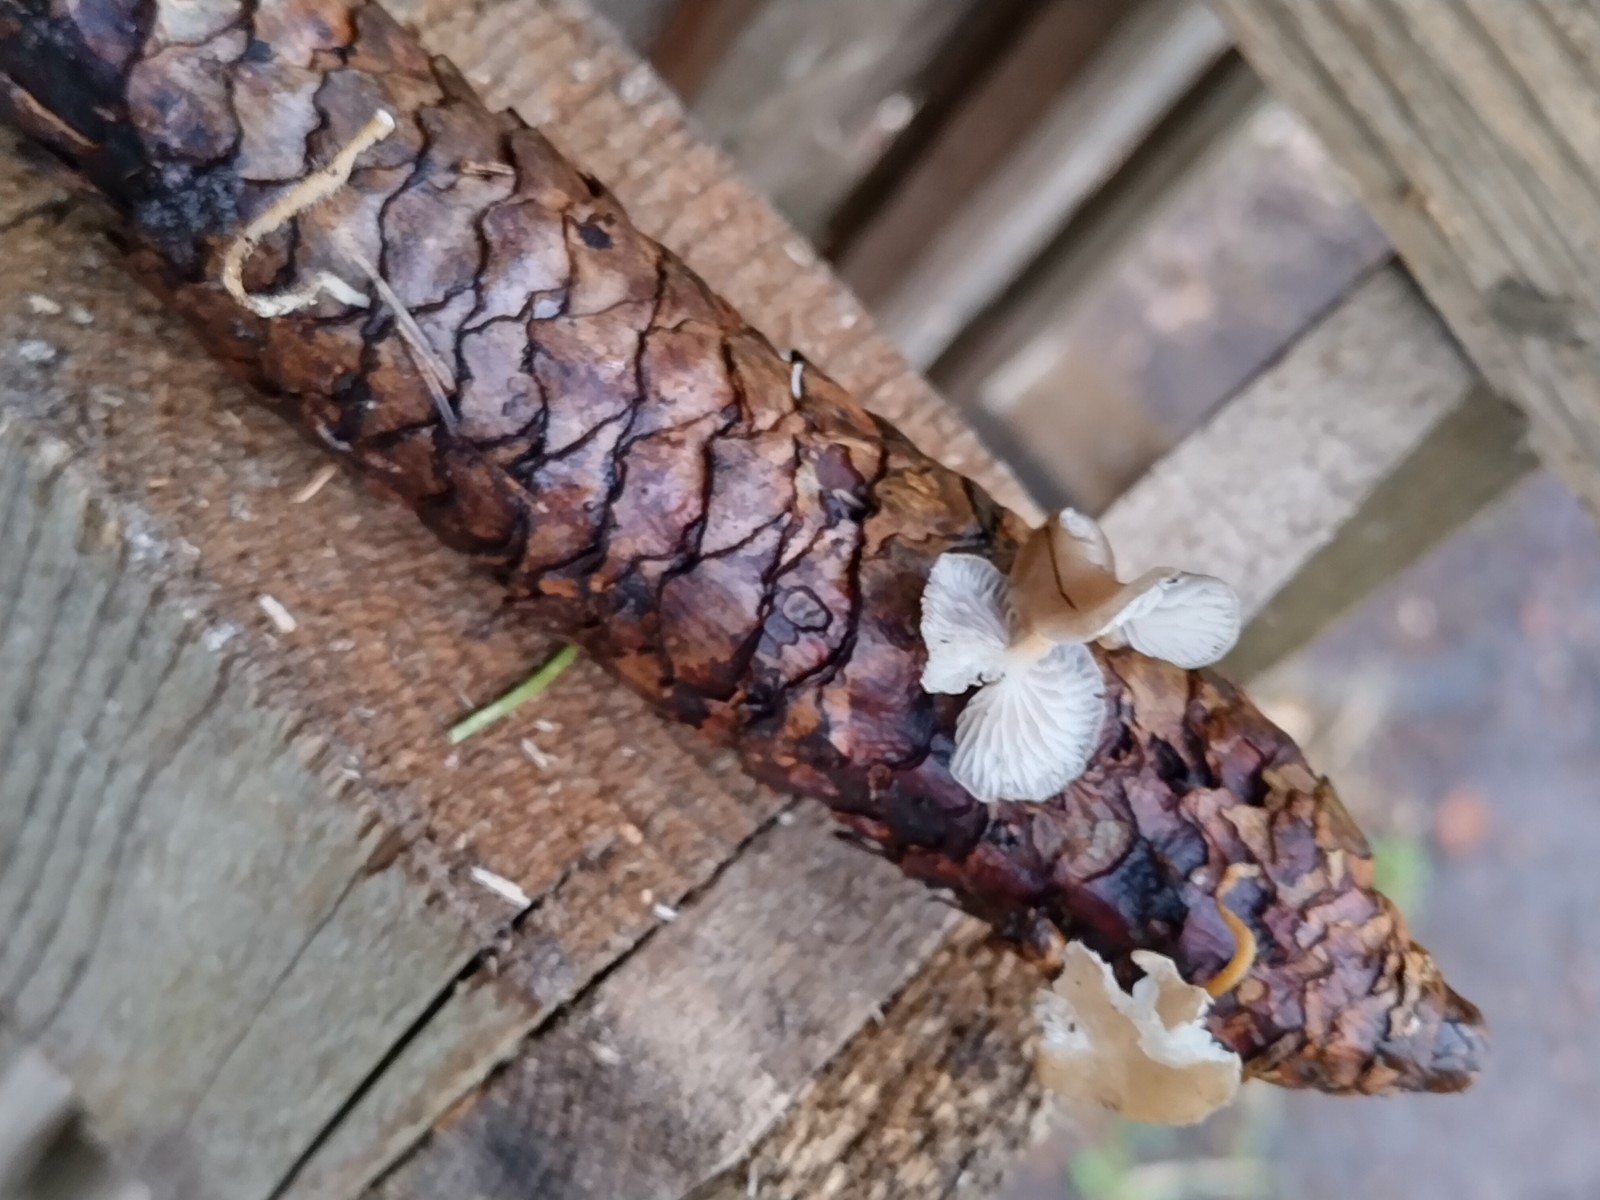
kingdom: Fungi
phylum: Basidiomycota
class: Agaricomycetes
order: Agaricales
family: Marasmiaceae
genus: Baeospora
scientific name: Baeospora myosura
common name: koglebruskhat
